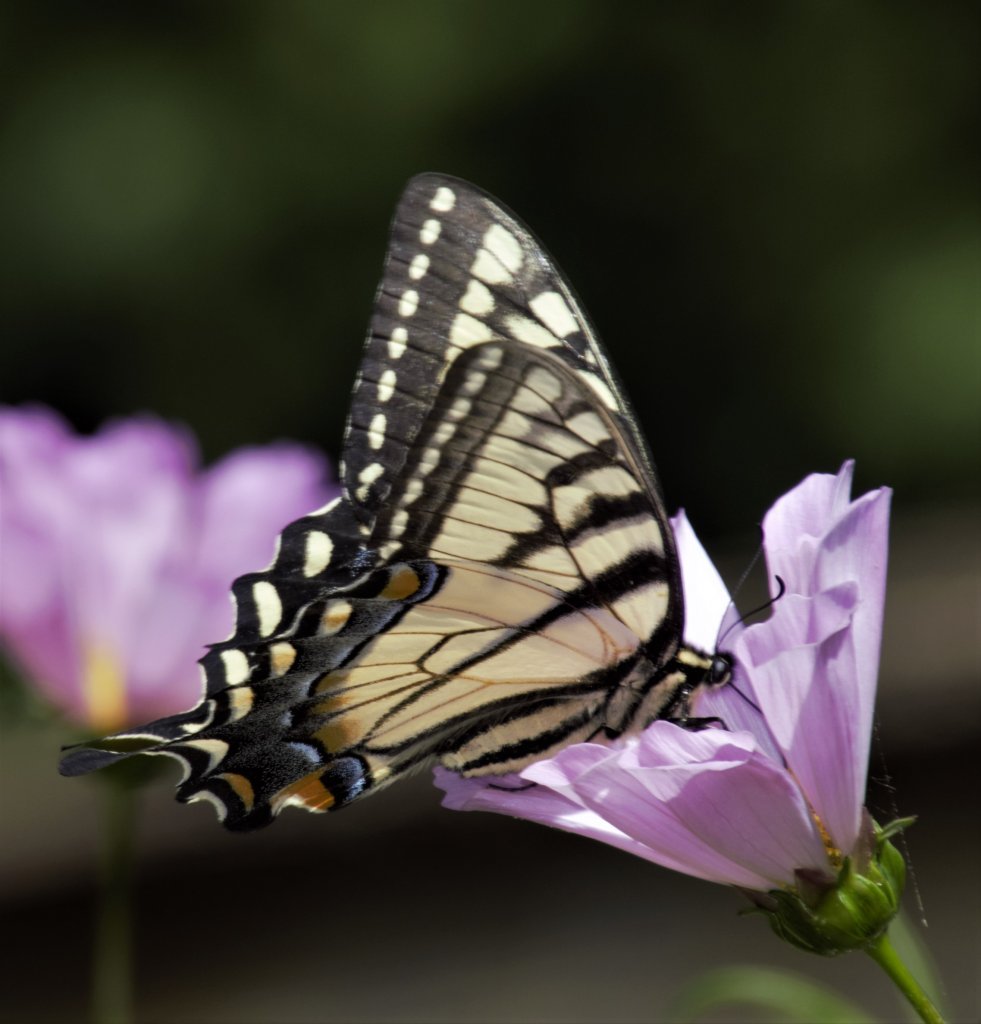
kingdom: Animalia
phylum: Arthropoda
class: Insecta
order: Lepidoptera
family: Papilionidae
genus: Pterourus
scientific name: Pterourus glaucus
